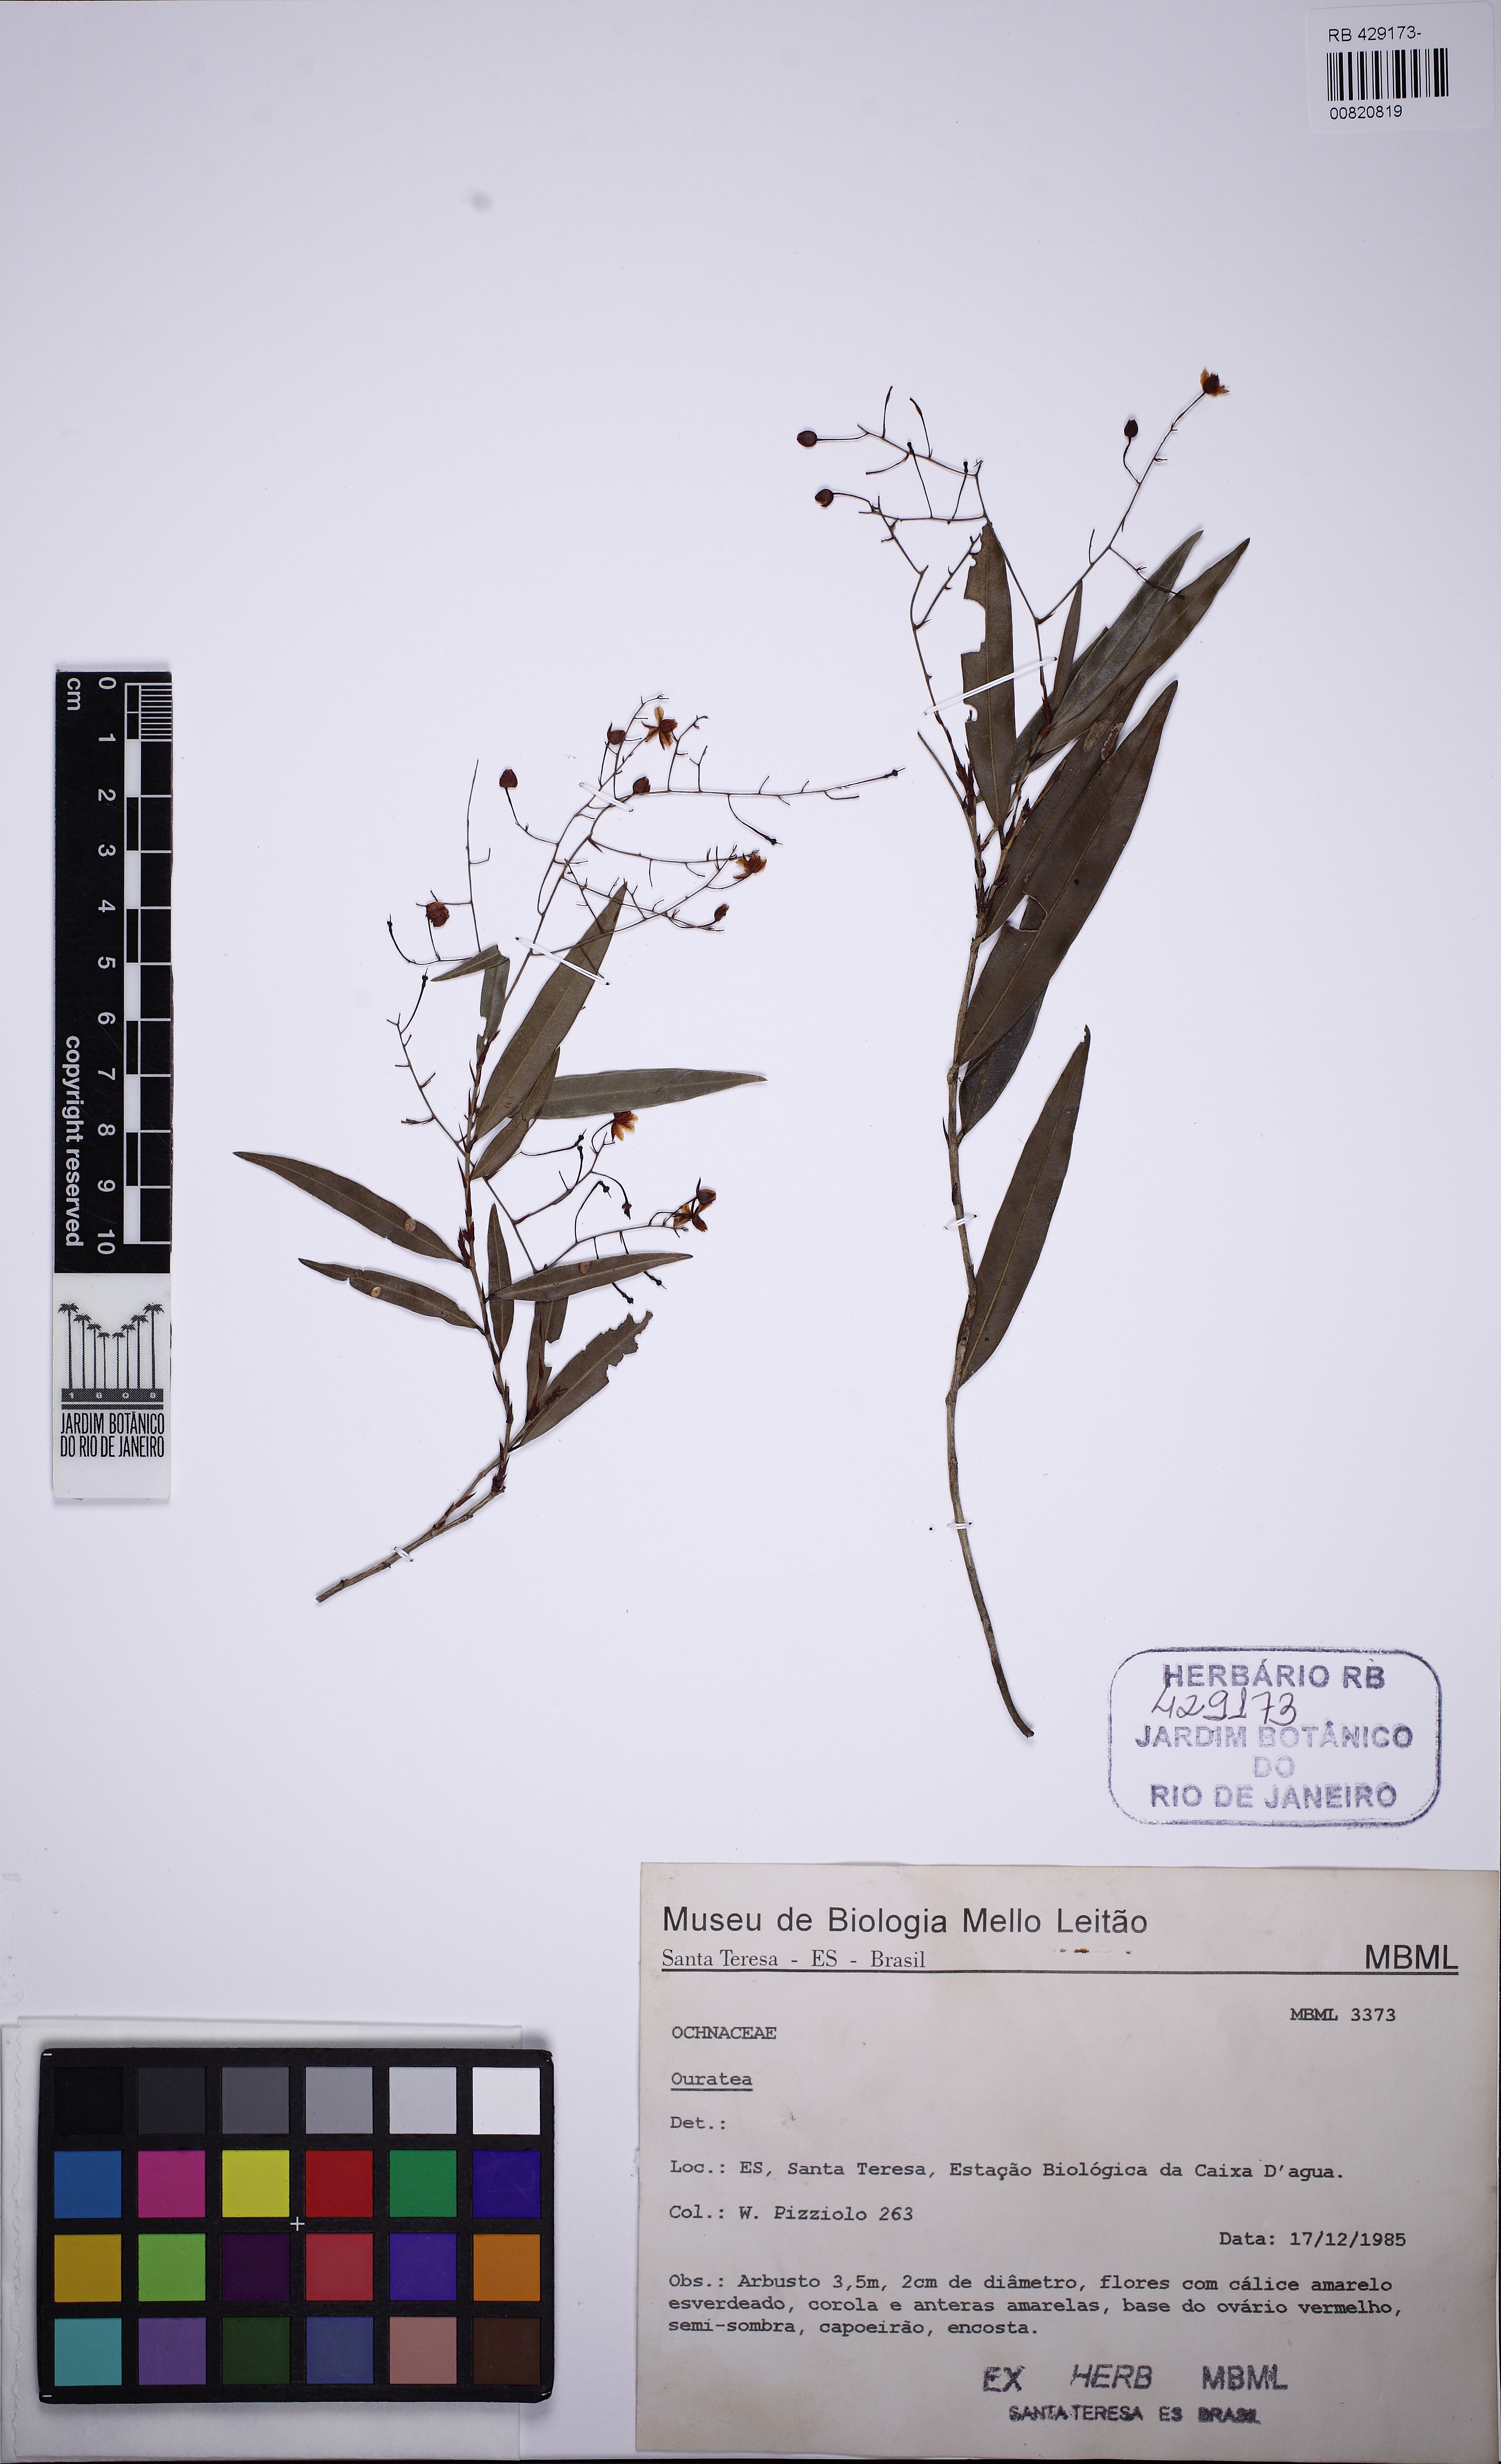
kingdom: Plantae
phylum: Tracheophyta
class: Magnoliopsida
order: Malpighiales
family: Ochnaceae
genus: Ouratea
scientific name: Ouratea
